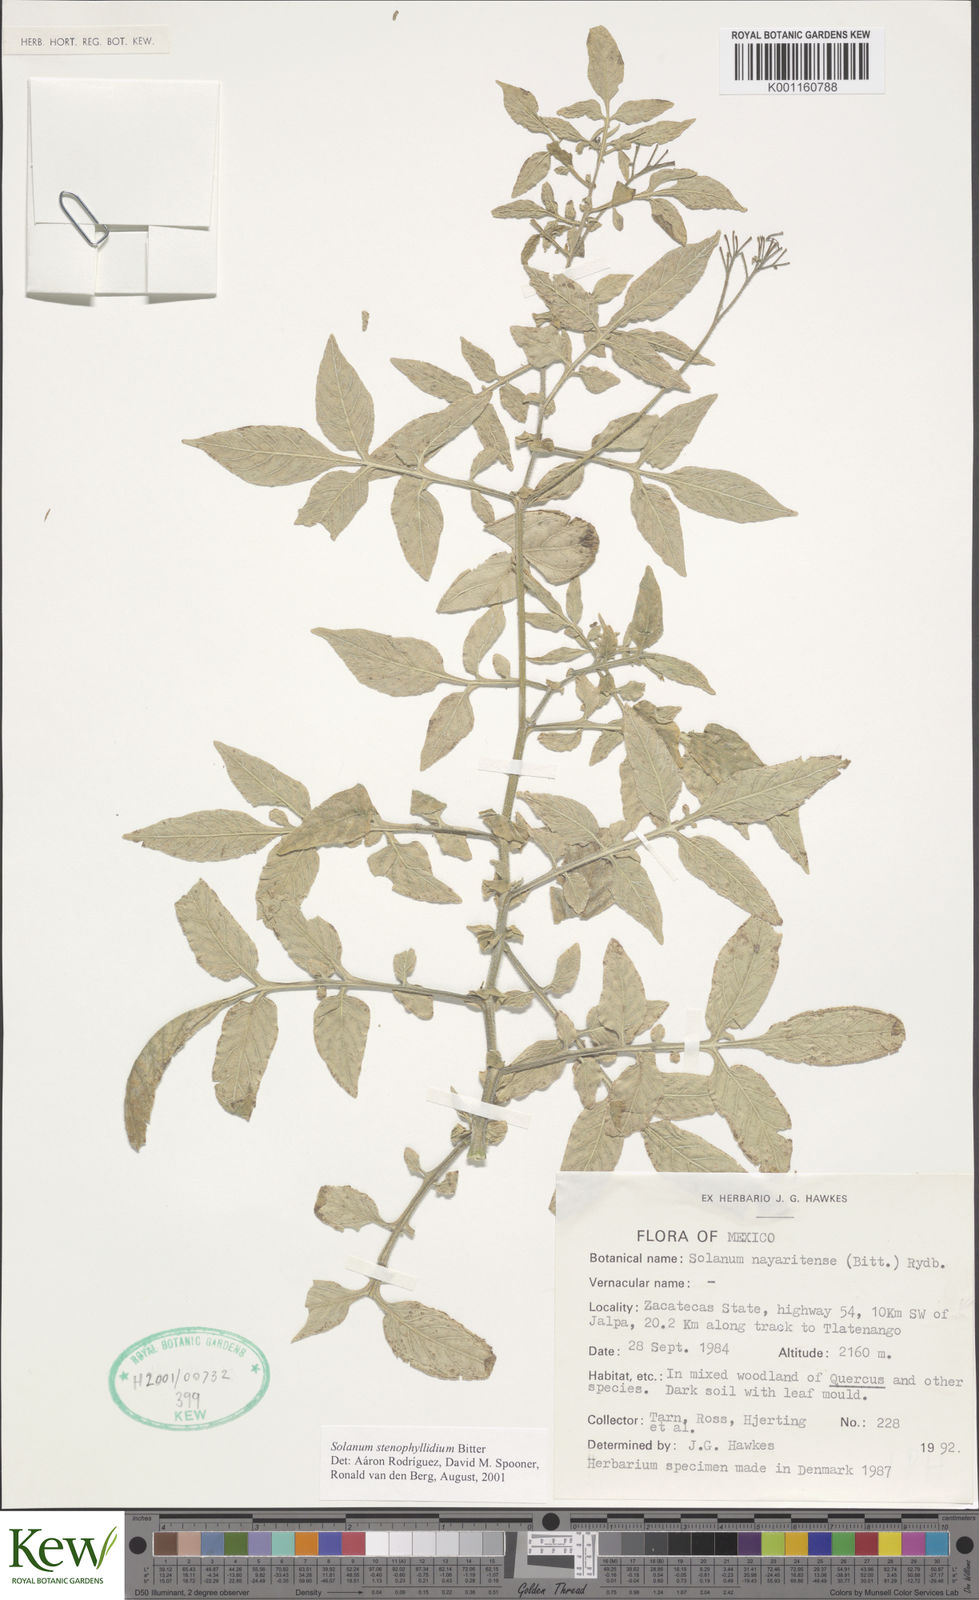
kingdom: Plantae
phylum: Tracheophyta
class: Magnoliopsida
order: Solanales
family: Solanaceae
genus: Solanum
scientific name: Solanum stenophyllidium
